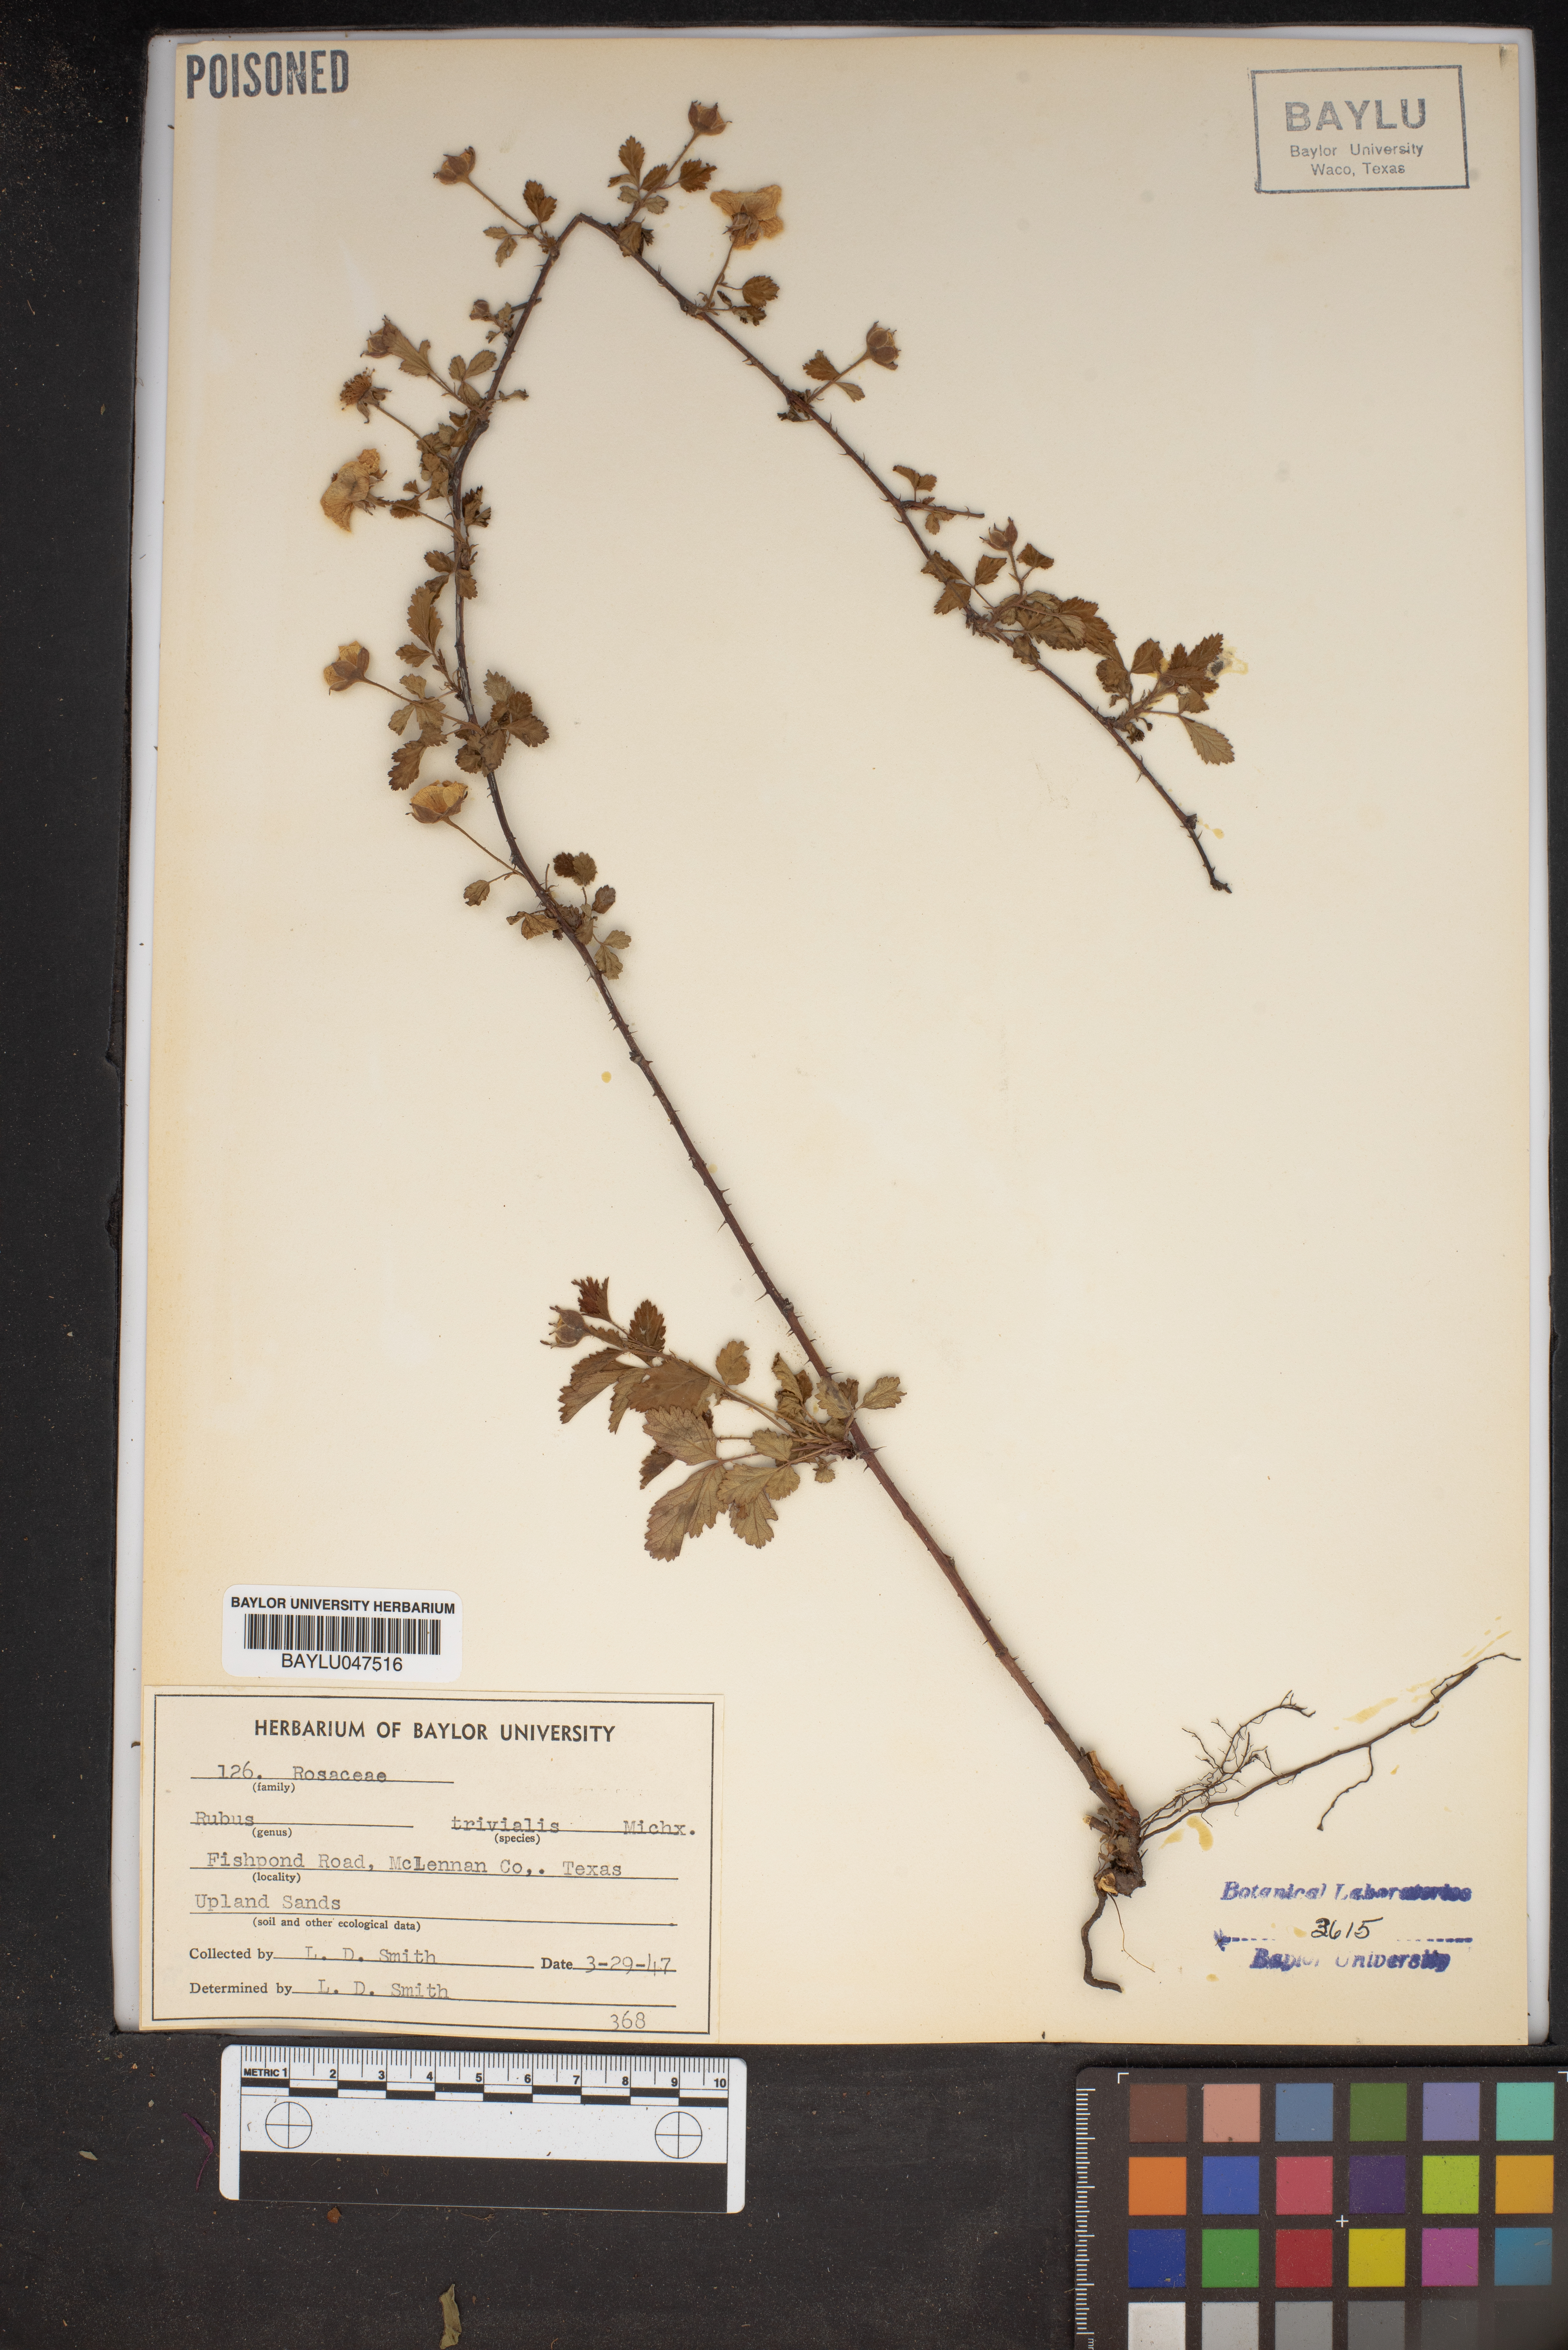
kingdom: Plantae
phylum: Tracheophyta
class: Magnoliopsida
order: Rosales
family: Rosaceae
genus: Rubus
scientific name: Rubus trivialis
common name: Southern dewberry
